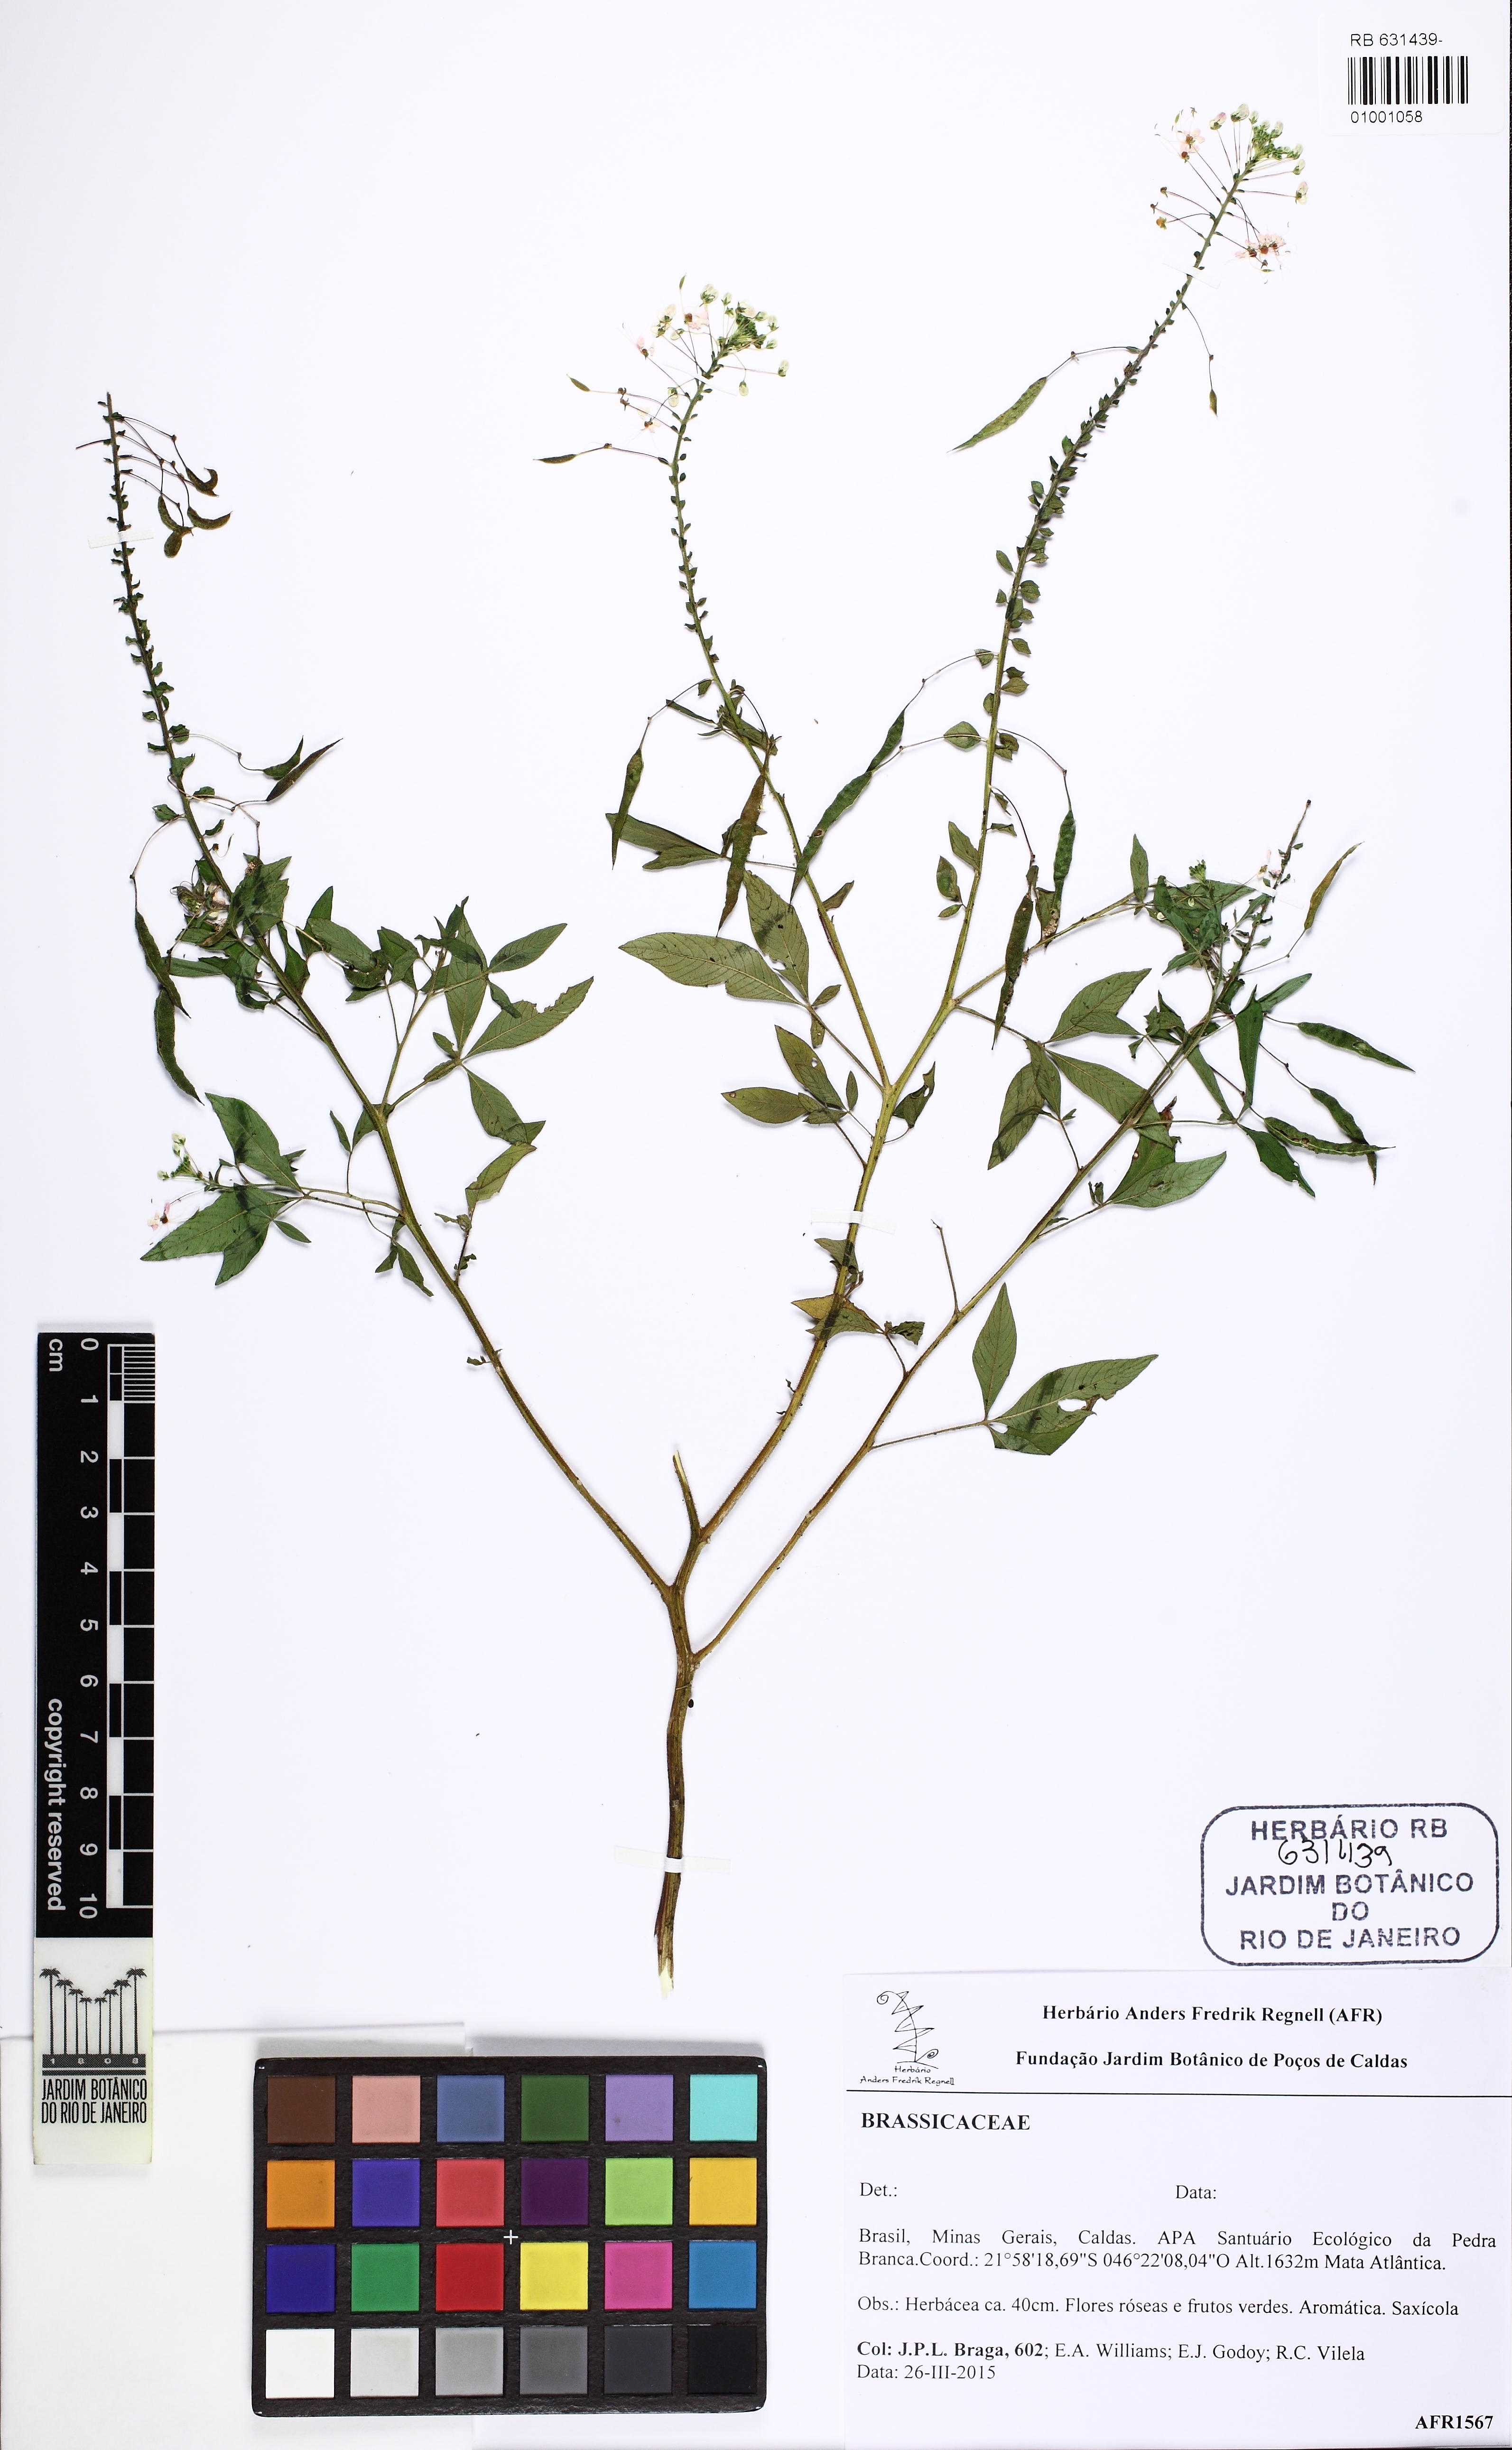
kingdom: Plantae
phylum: Tracheophyta
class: Magnoliopsida
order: Brassicales
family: Cleomaceae
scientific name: Cleomaceae
